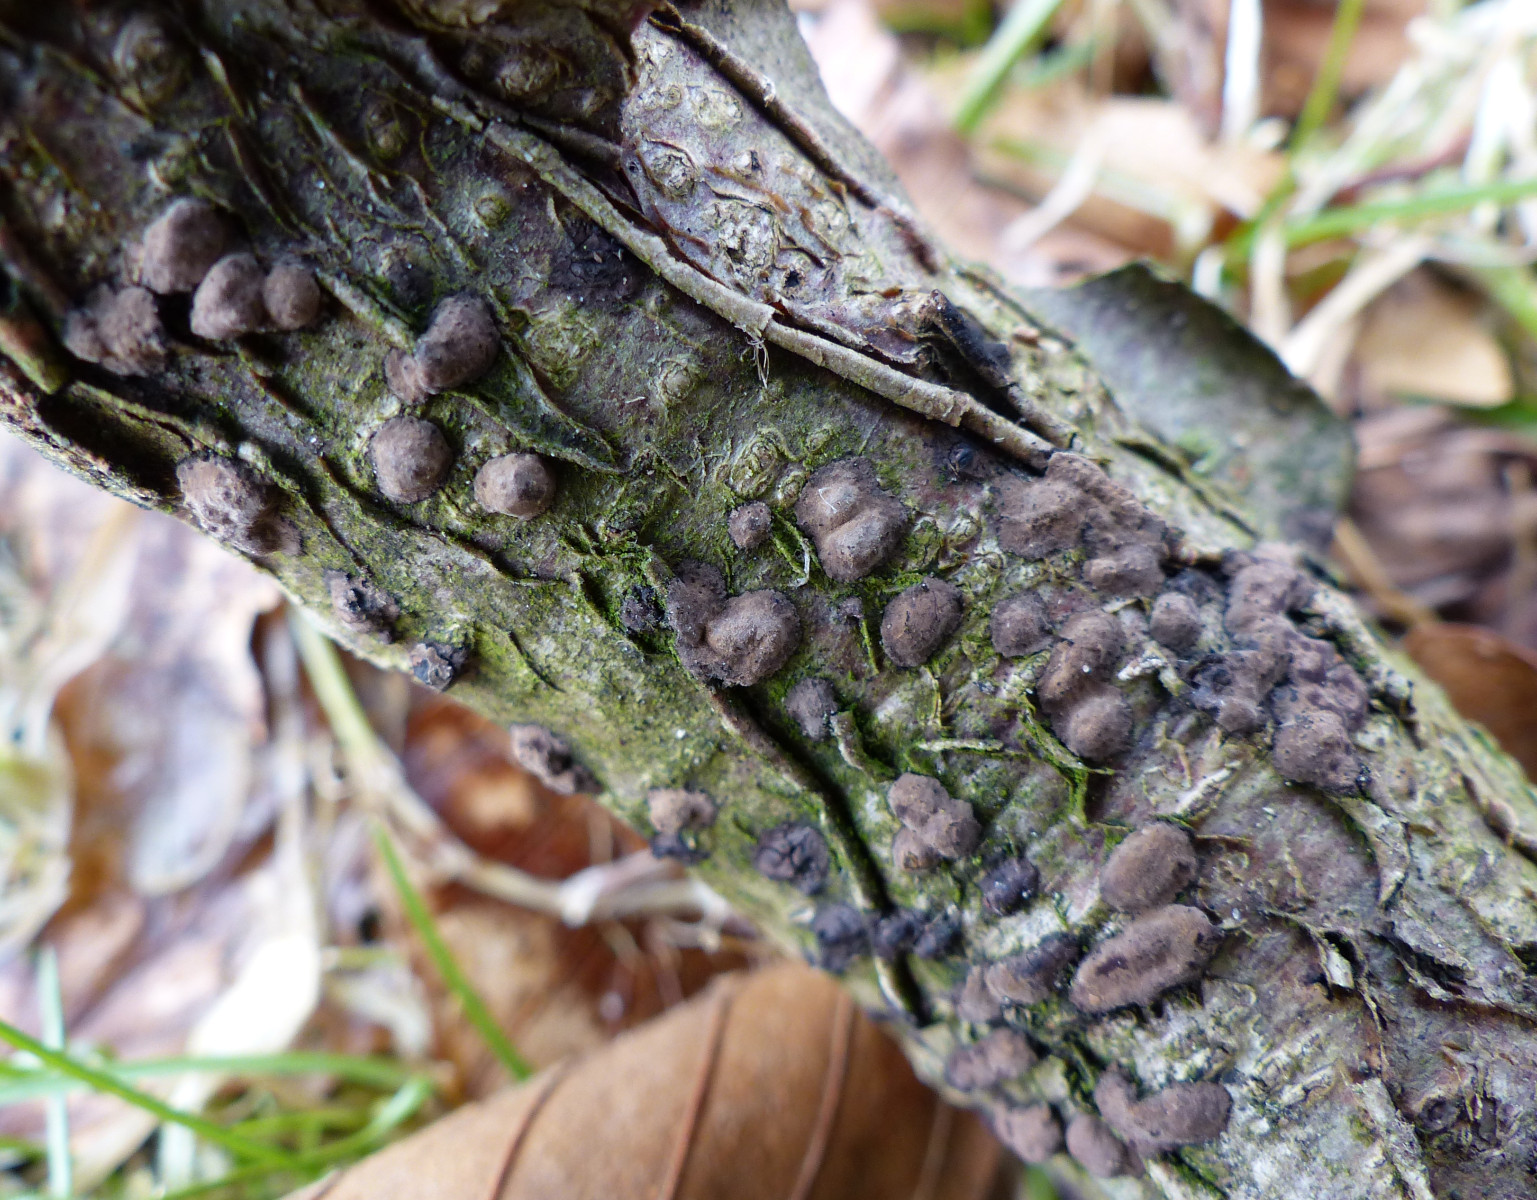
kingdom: Fungi
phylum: Ascomycota
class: Sordariomycetes
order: Xylariales
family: Hypoxylaceae
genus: Hypoxylon
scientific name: Hypoxylon fuscum
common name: kegleformet kulbær
